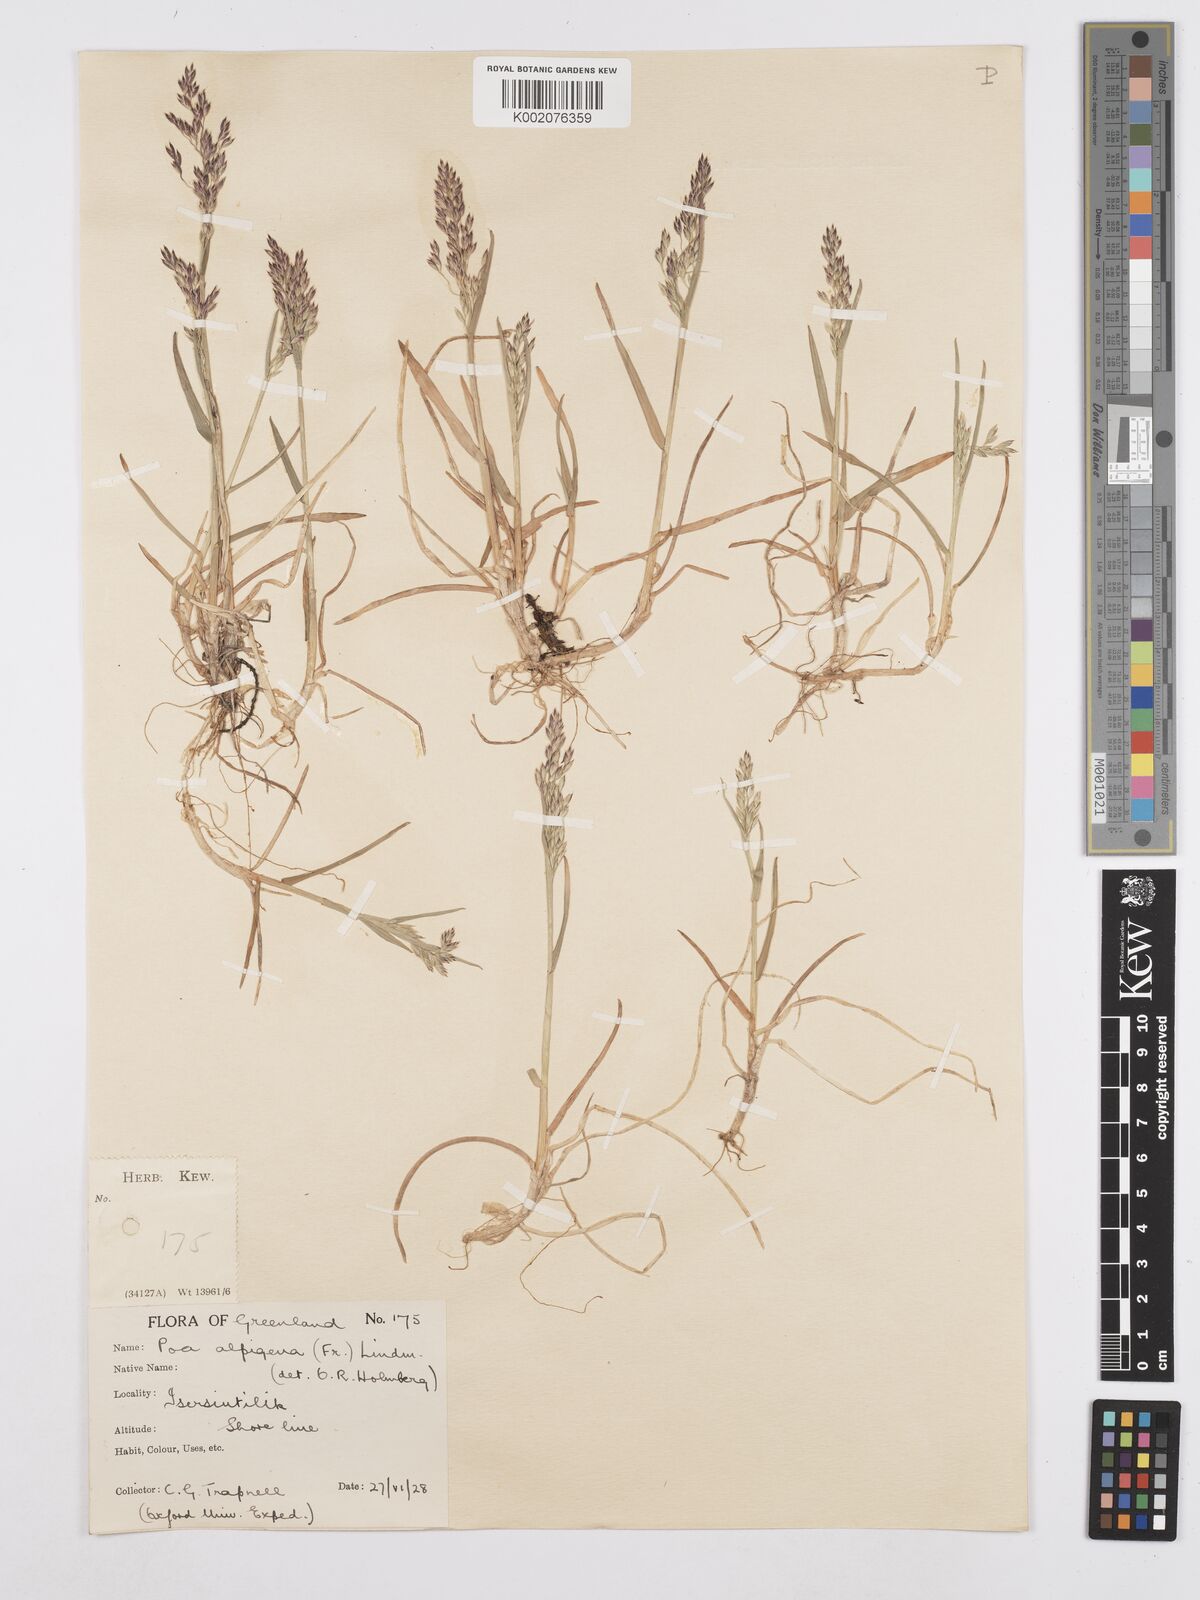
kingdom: Plantae
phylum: Tracheophyta
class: Liliopsida
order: Poales
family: Poaceae
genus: Poa
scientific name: Poa
